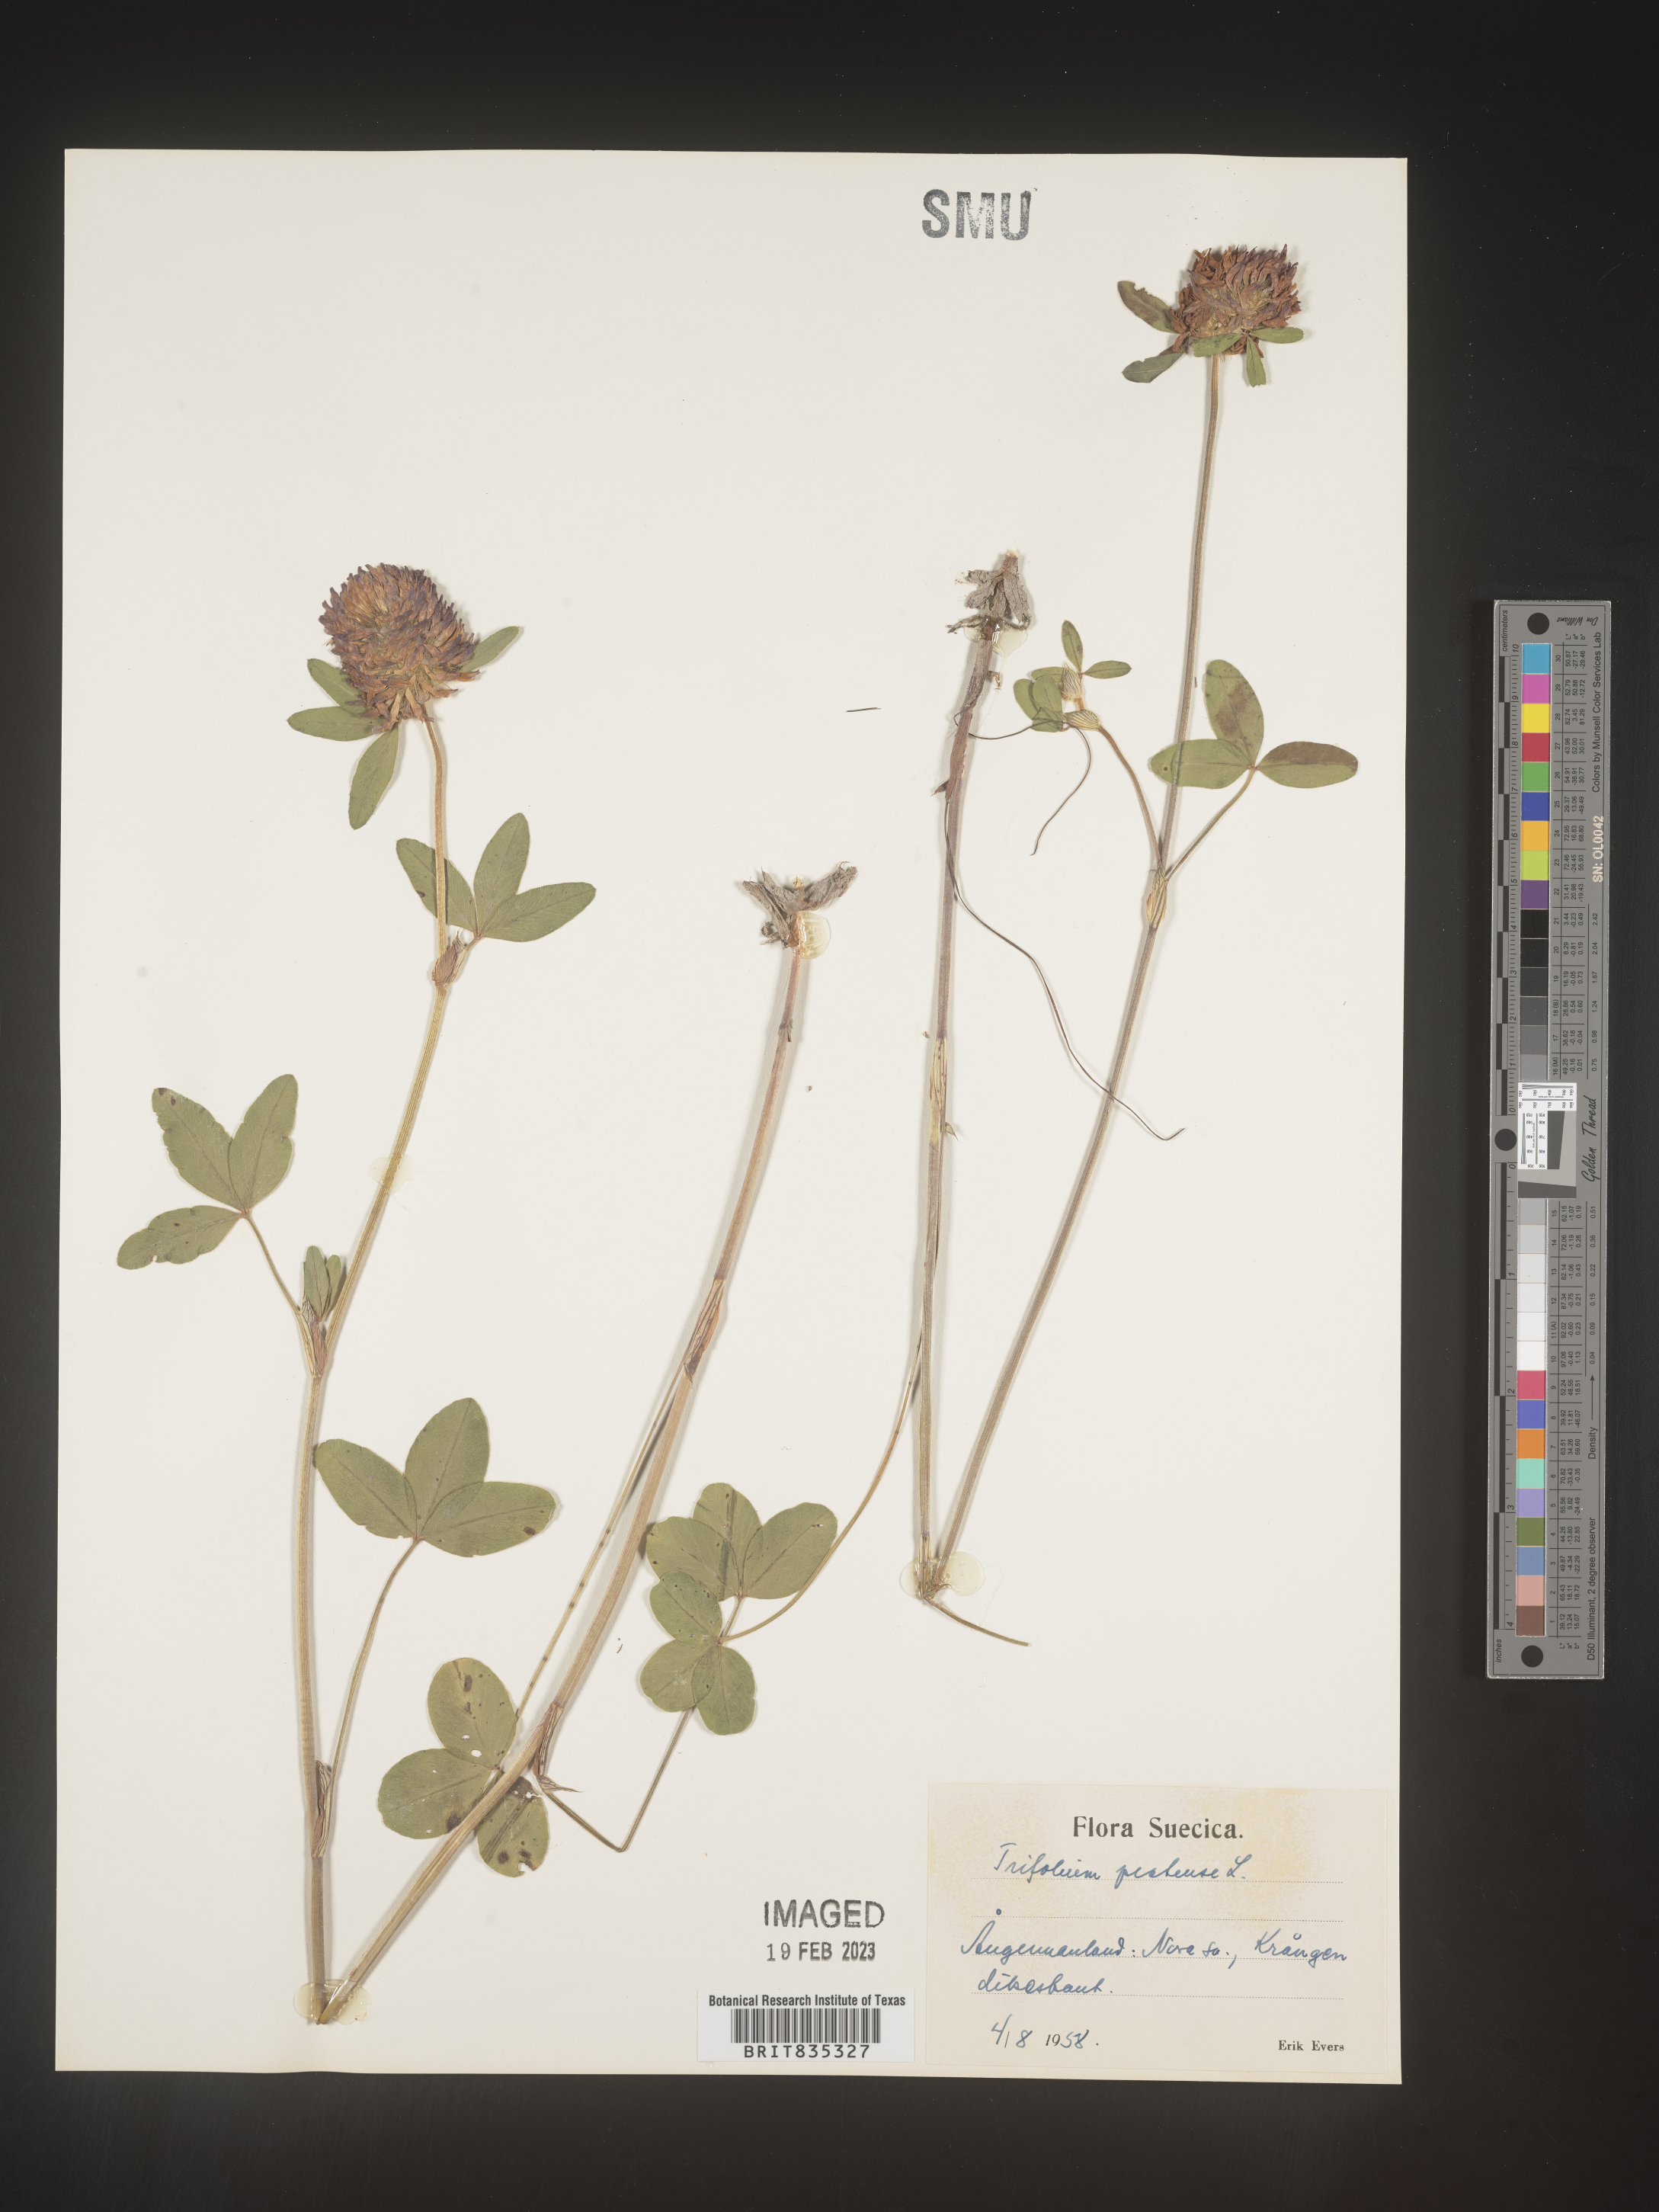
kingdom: Plantae
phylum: Tracheophyta
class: Magnoliopsida
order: Fabales
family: Fabaceae
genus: Trifolium
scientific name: Trifolium
